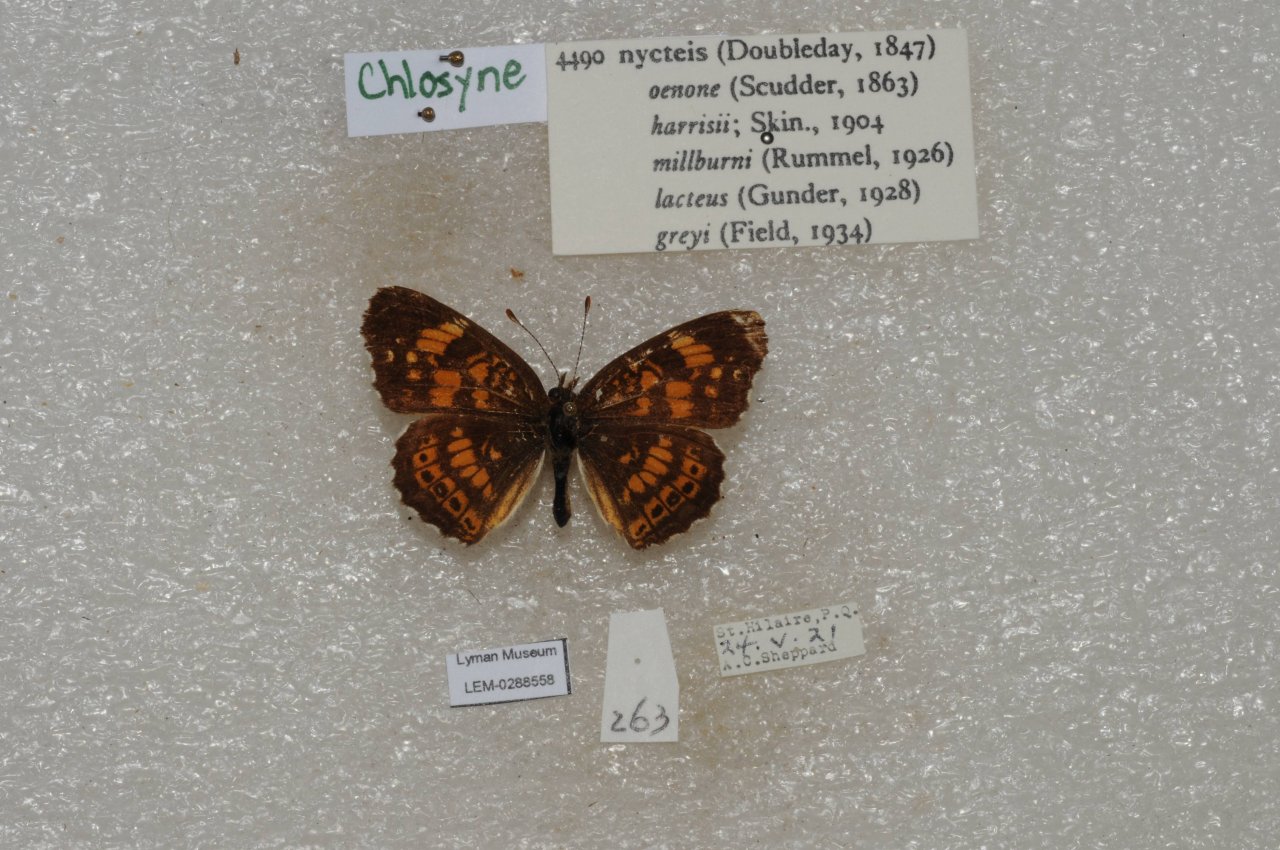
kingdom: Animalia
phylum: Arthropoda
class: Insecta
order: Lepidoptera
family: Nymphalidae
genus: Chlosyne
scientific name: Chlosyne nycteis
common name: Silvery Checkerspot
